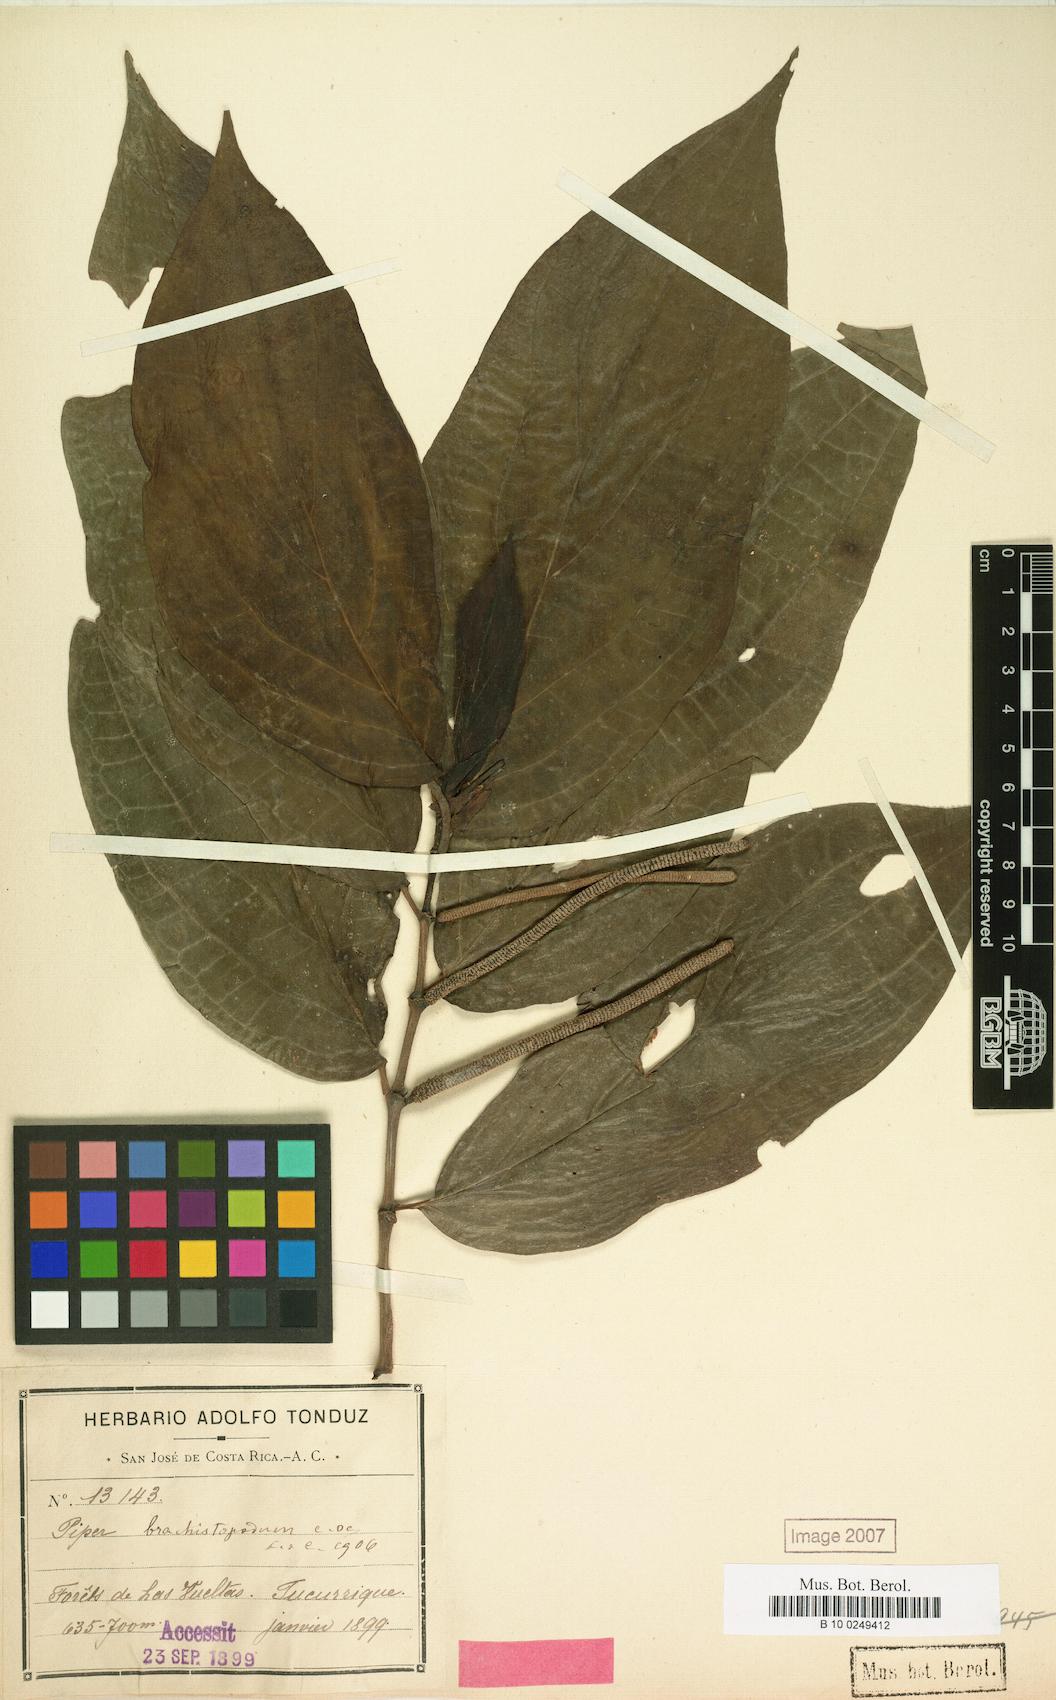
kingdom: Plantae
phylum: Tracheophyta
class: Magnoliopsida
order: Piperales
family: Piperaceae
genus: Piper
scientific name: Piper brachistopodum
